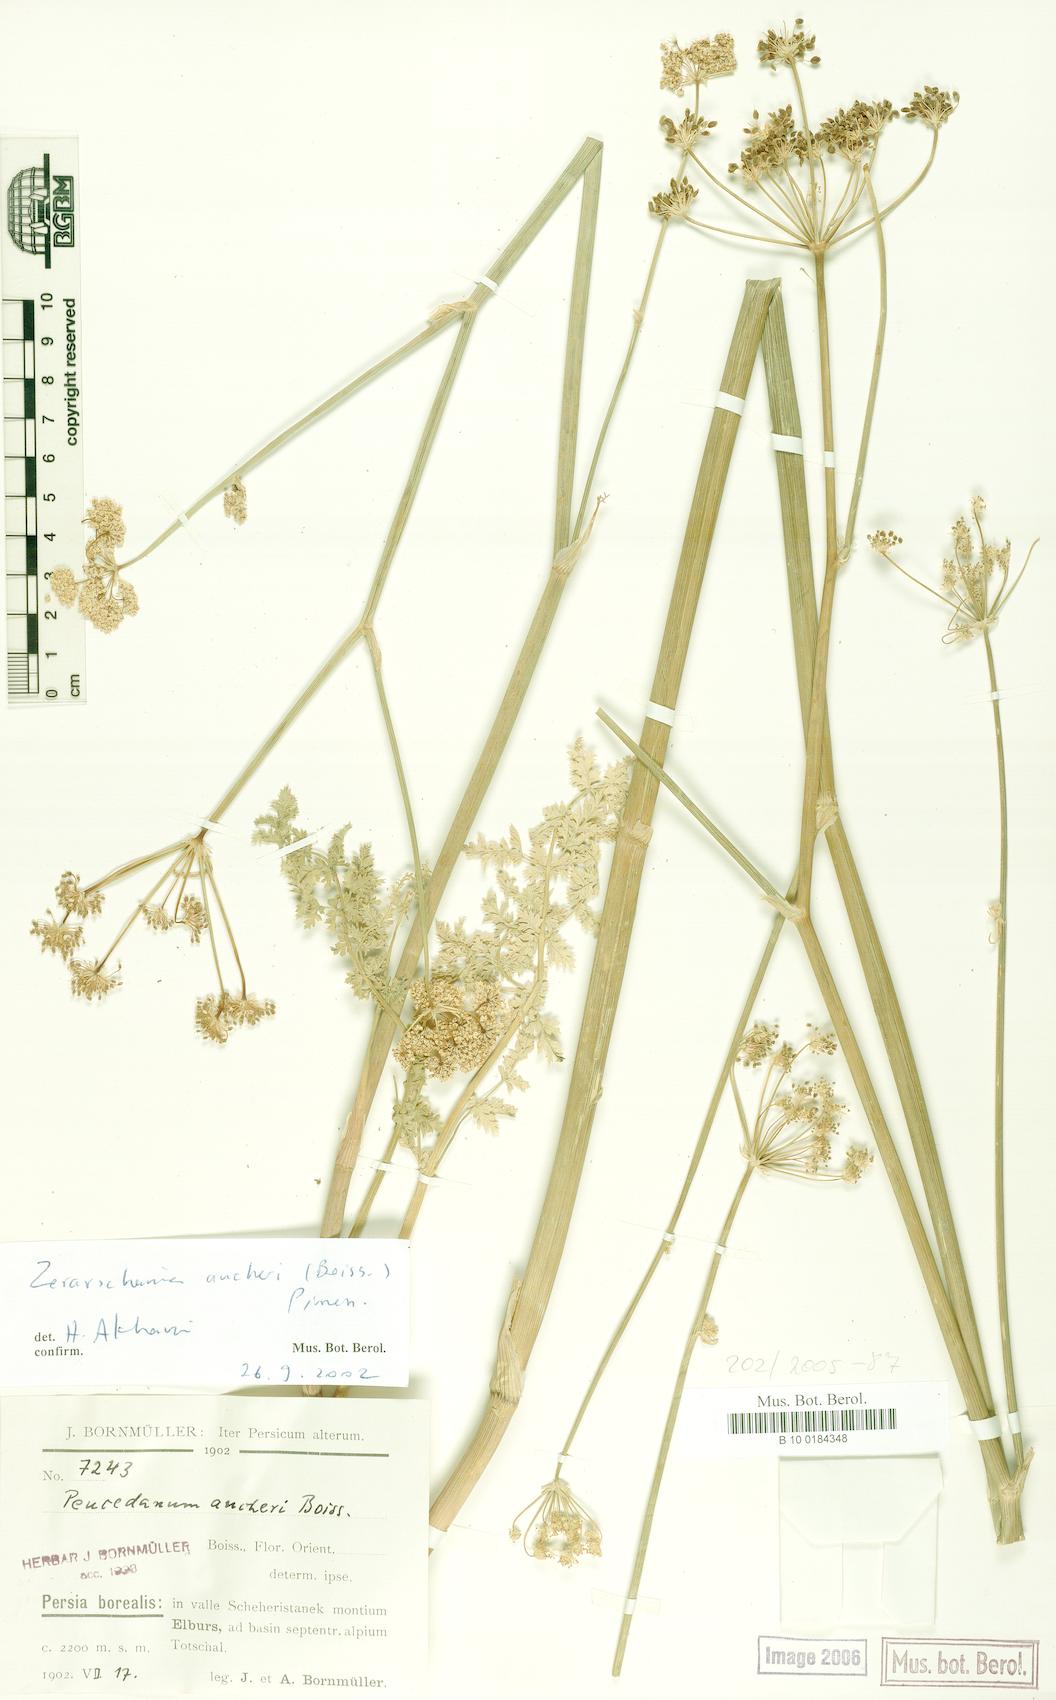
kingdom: Plantae
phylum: Tracheophyta
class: Magnoliopsida
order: Apiales
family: Apiaceae
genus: Zeravschania
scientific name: Zeravschania aucheri
